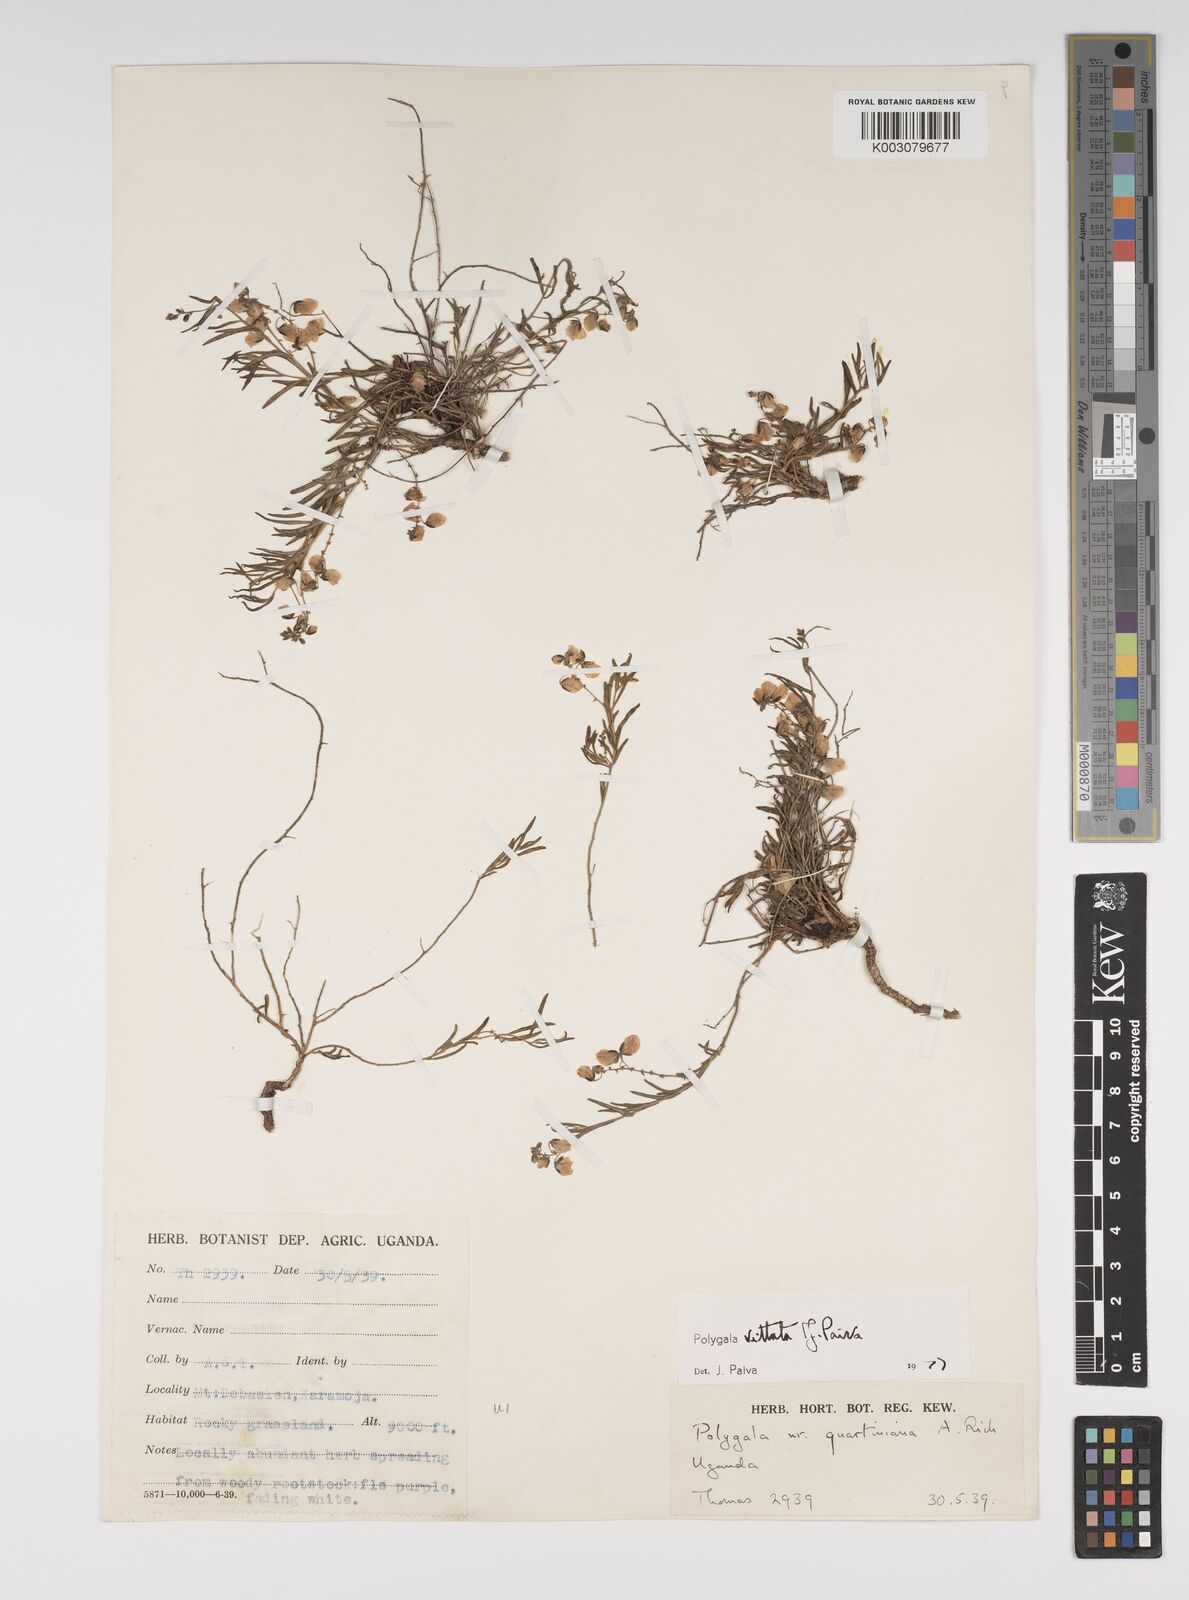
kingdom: Plantae
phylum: Tracheophyta
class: Magnoliopsida
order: Fabales
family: Polygalaceae
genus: Polygala
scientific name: Polygala vittata
